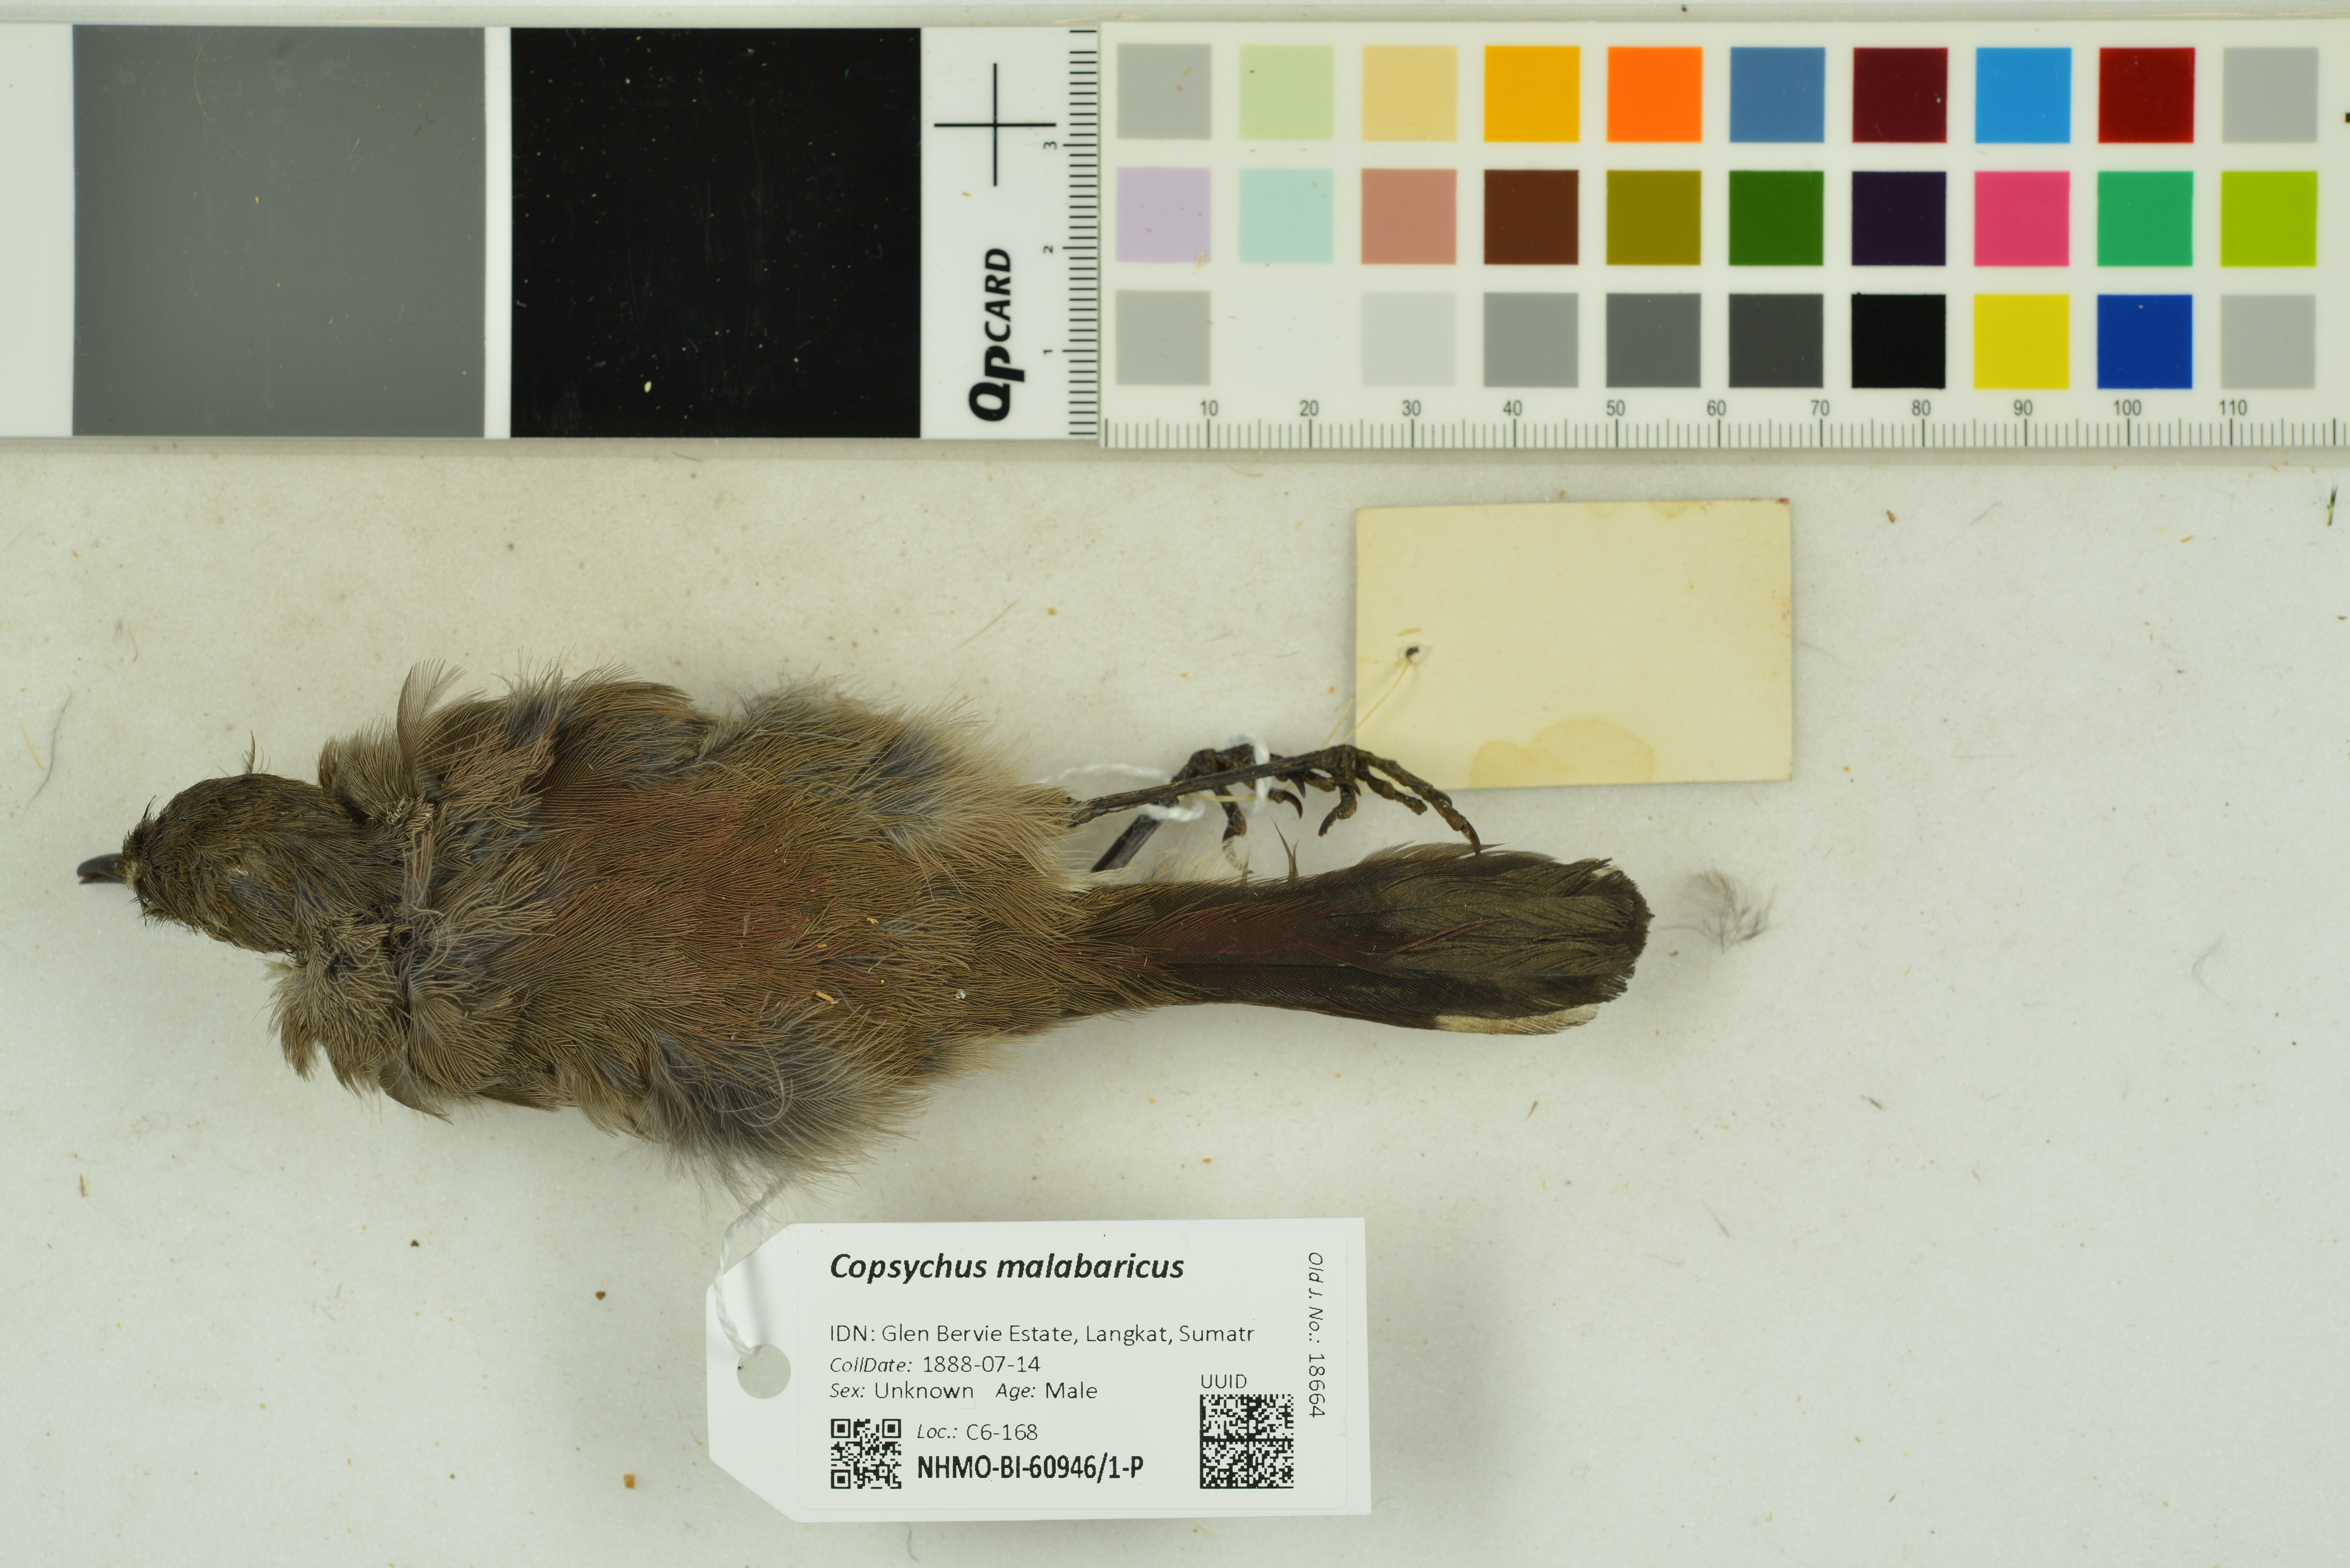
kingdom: Animalia
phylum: Chordata
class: Aves
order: Passeriformes
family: Muscicapidae
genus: Copsychus
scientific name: Copsychus malabaricus
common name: White-rumped shama
